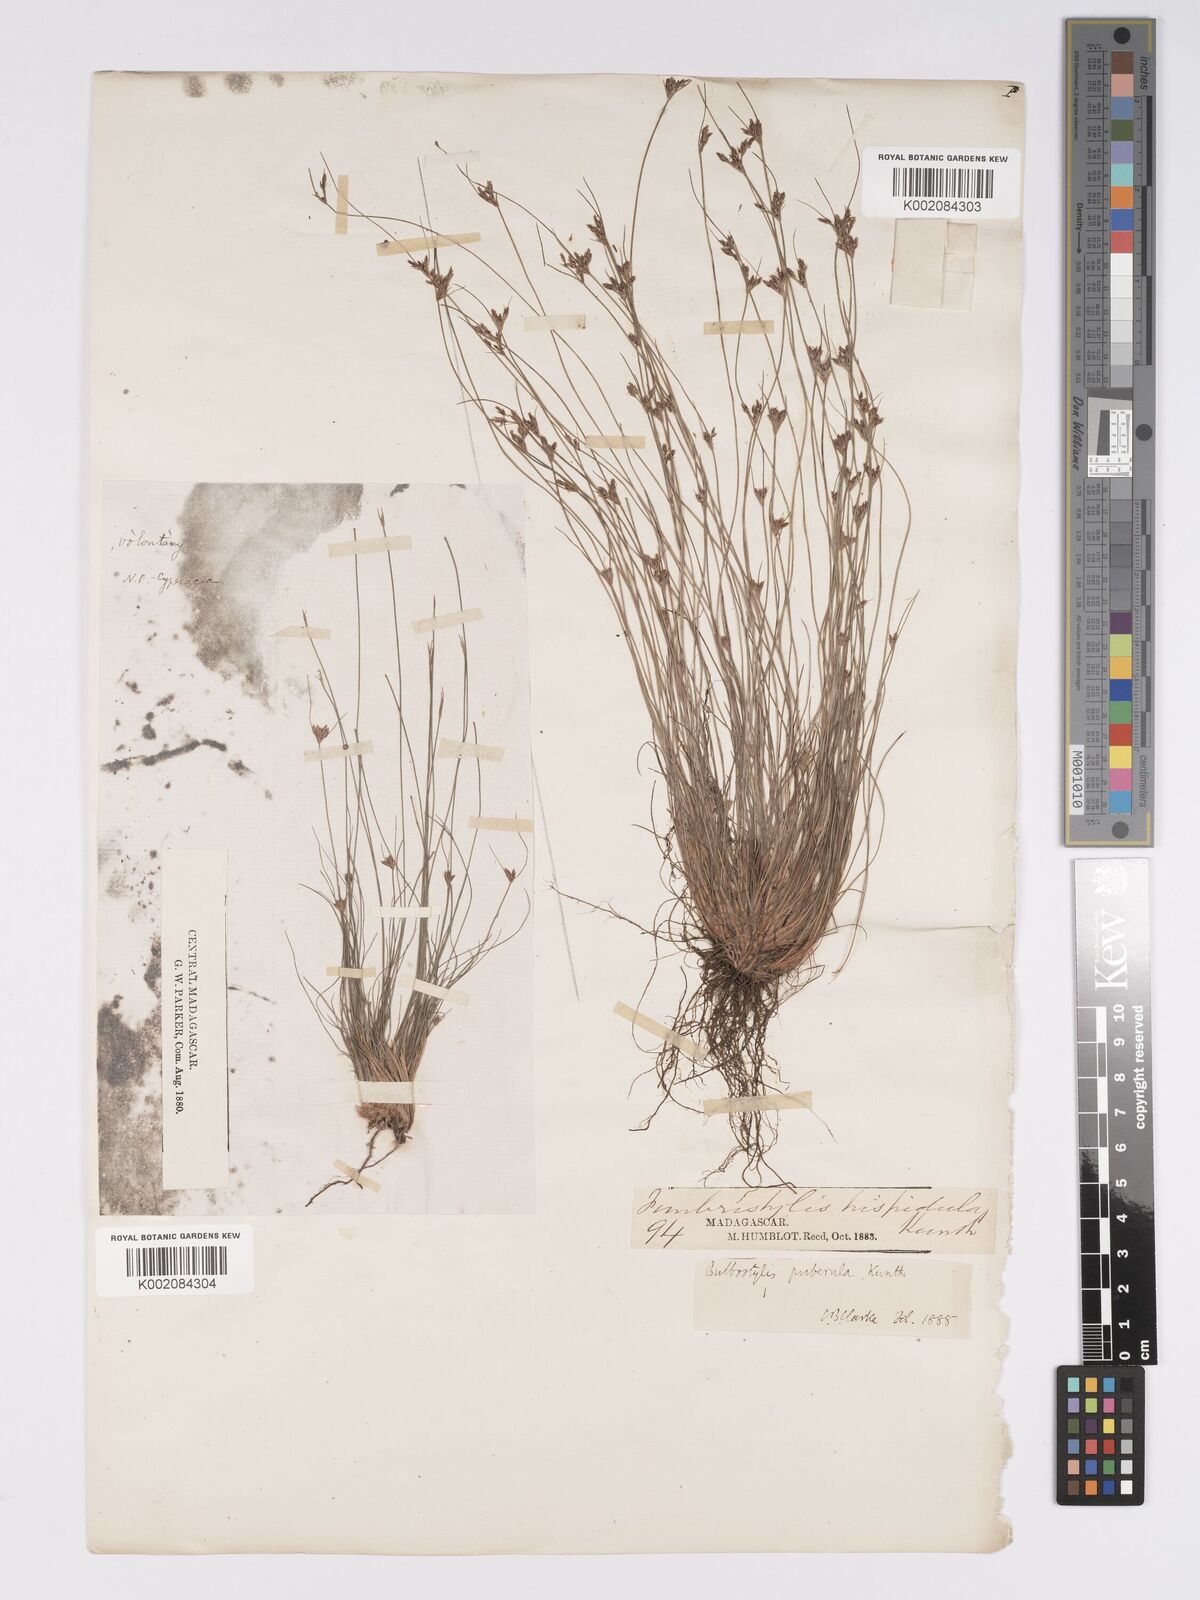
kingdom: Plantae
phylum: Tracheophyta
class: Liliopsida
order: Poales
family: Cyperaceae
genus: Bulbostylis
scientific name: Bulbostylis thouarsii
